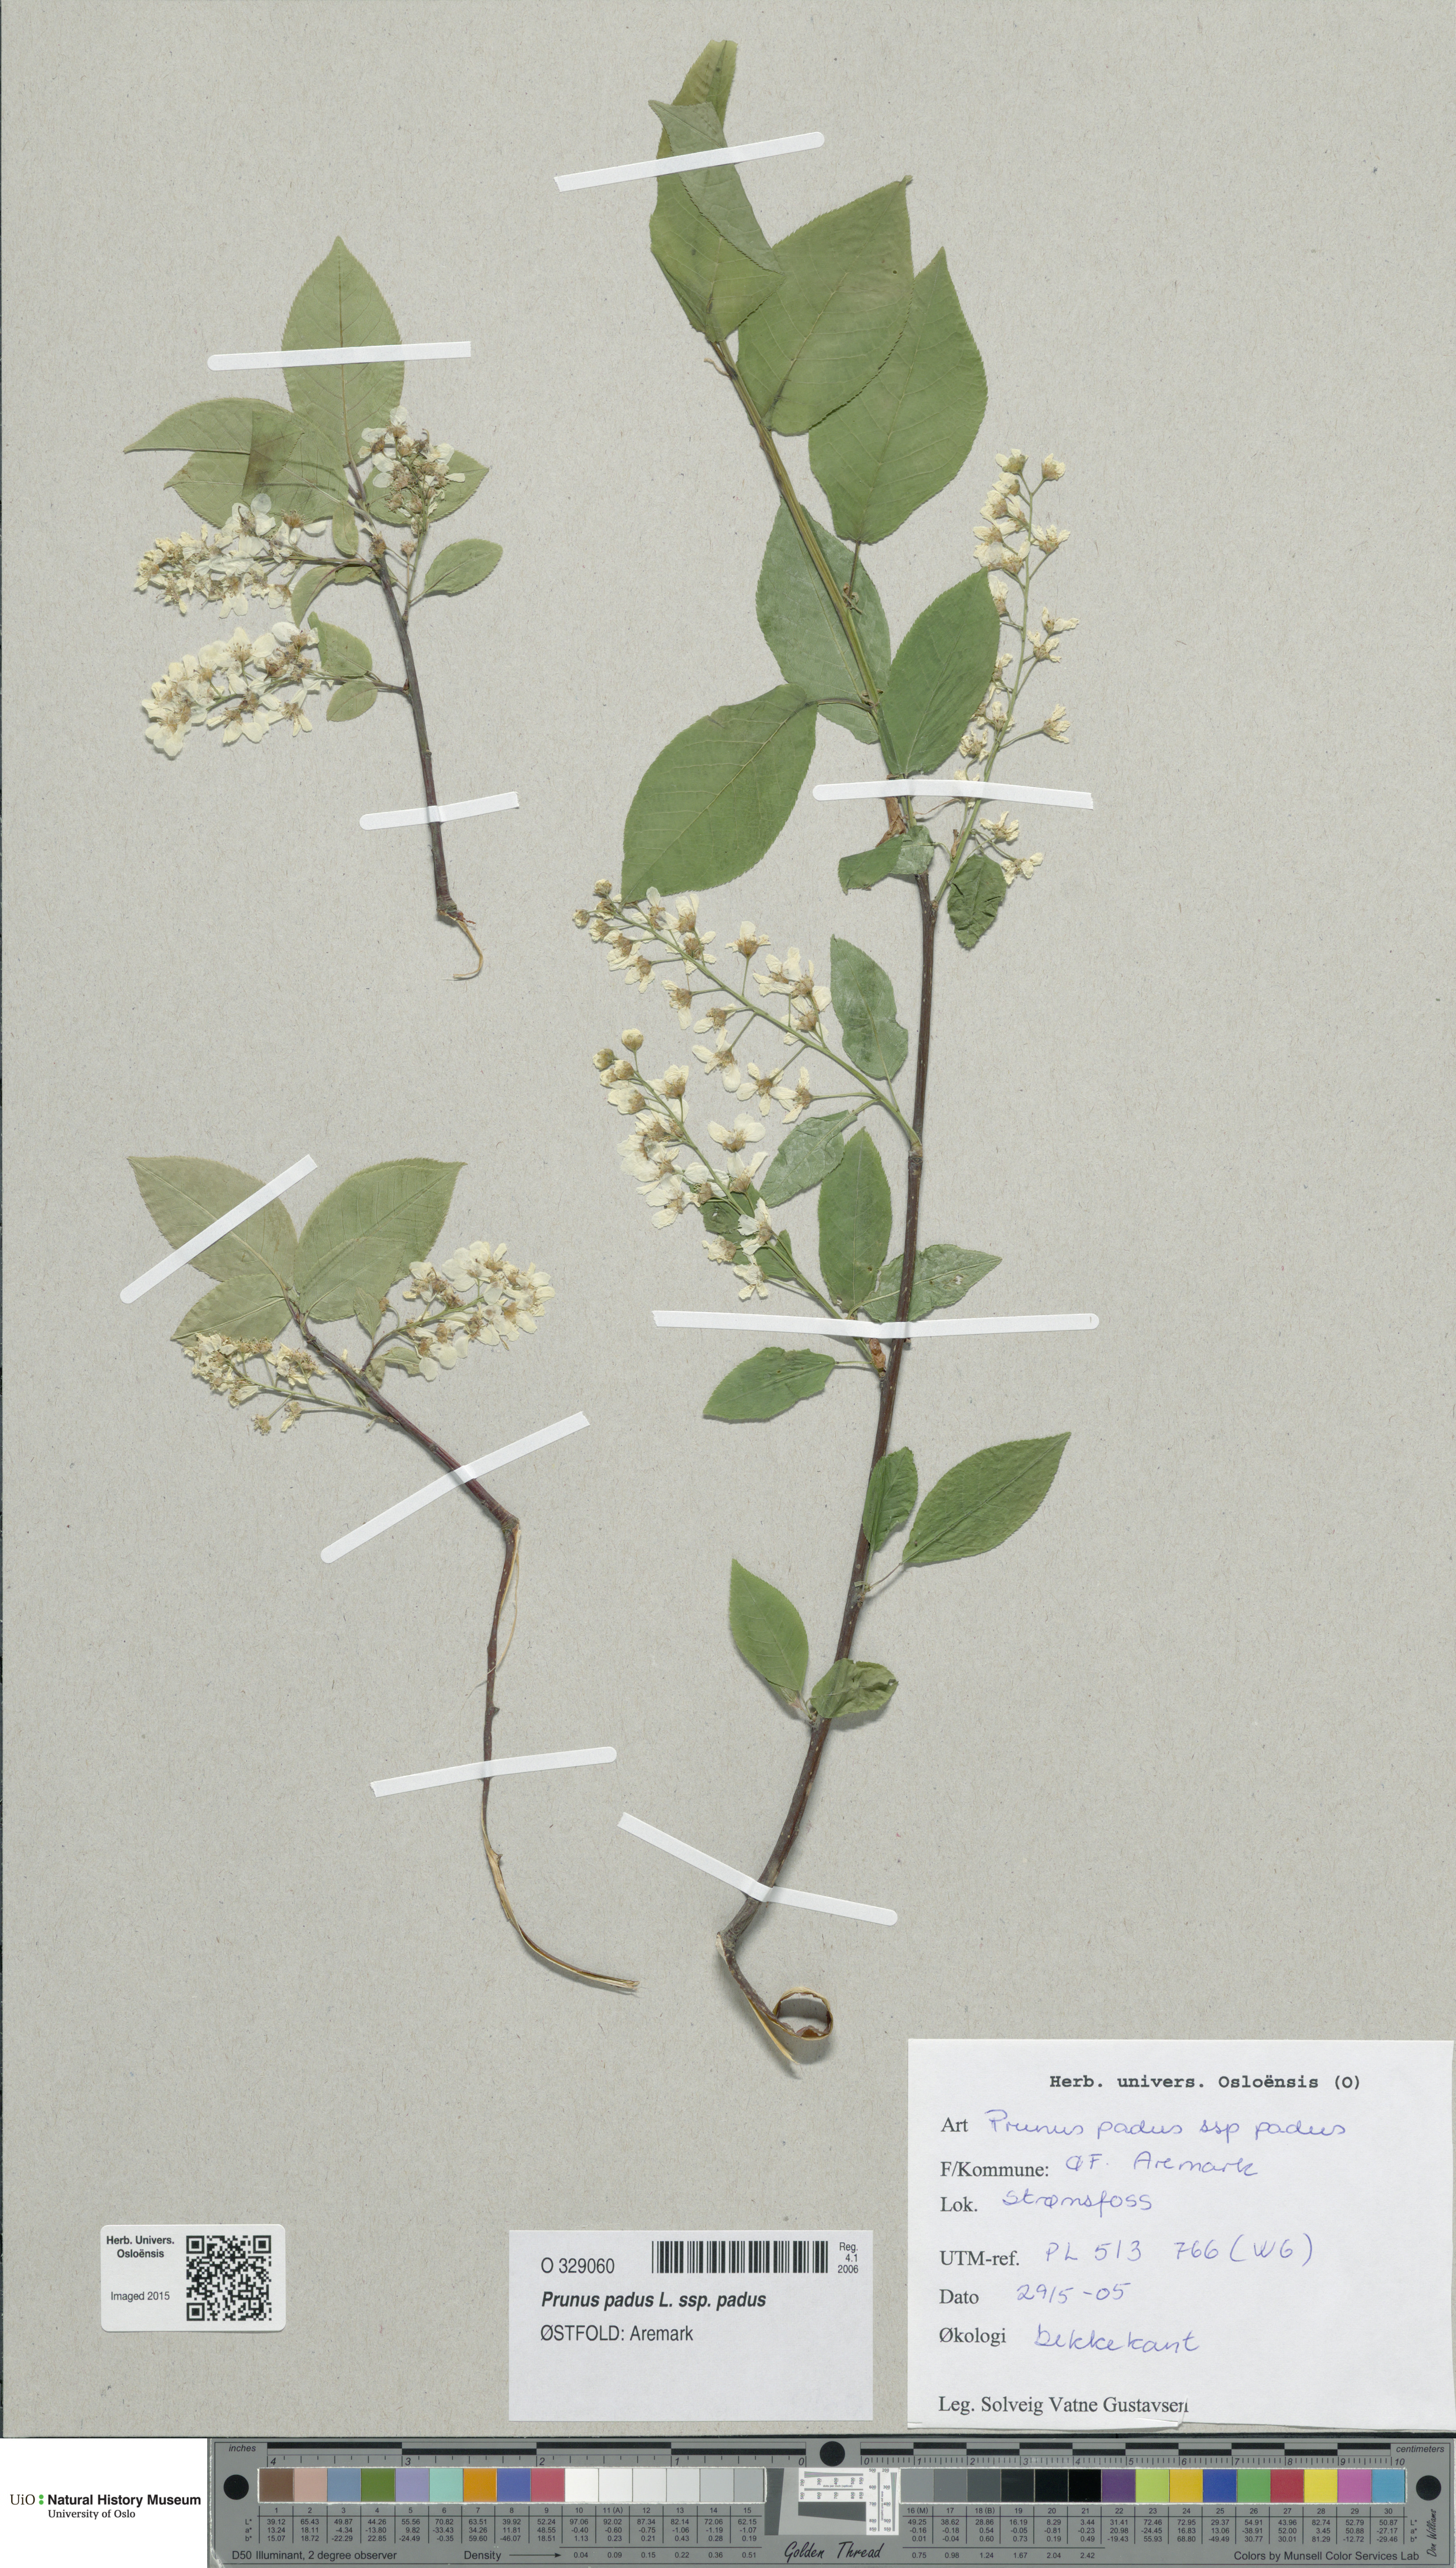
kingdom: Plantae
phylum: Tracheophyta
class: Magnoliopsida
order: Rosales
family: Rosaceae
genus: Prunus
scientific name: Prunus padus
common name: Bird cherry
